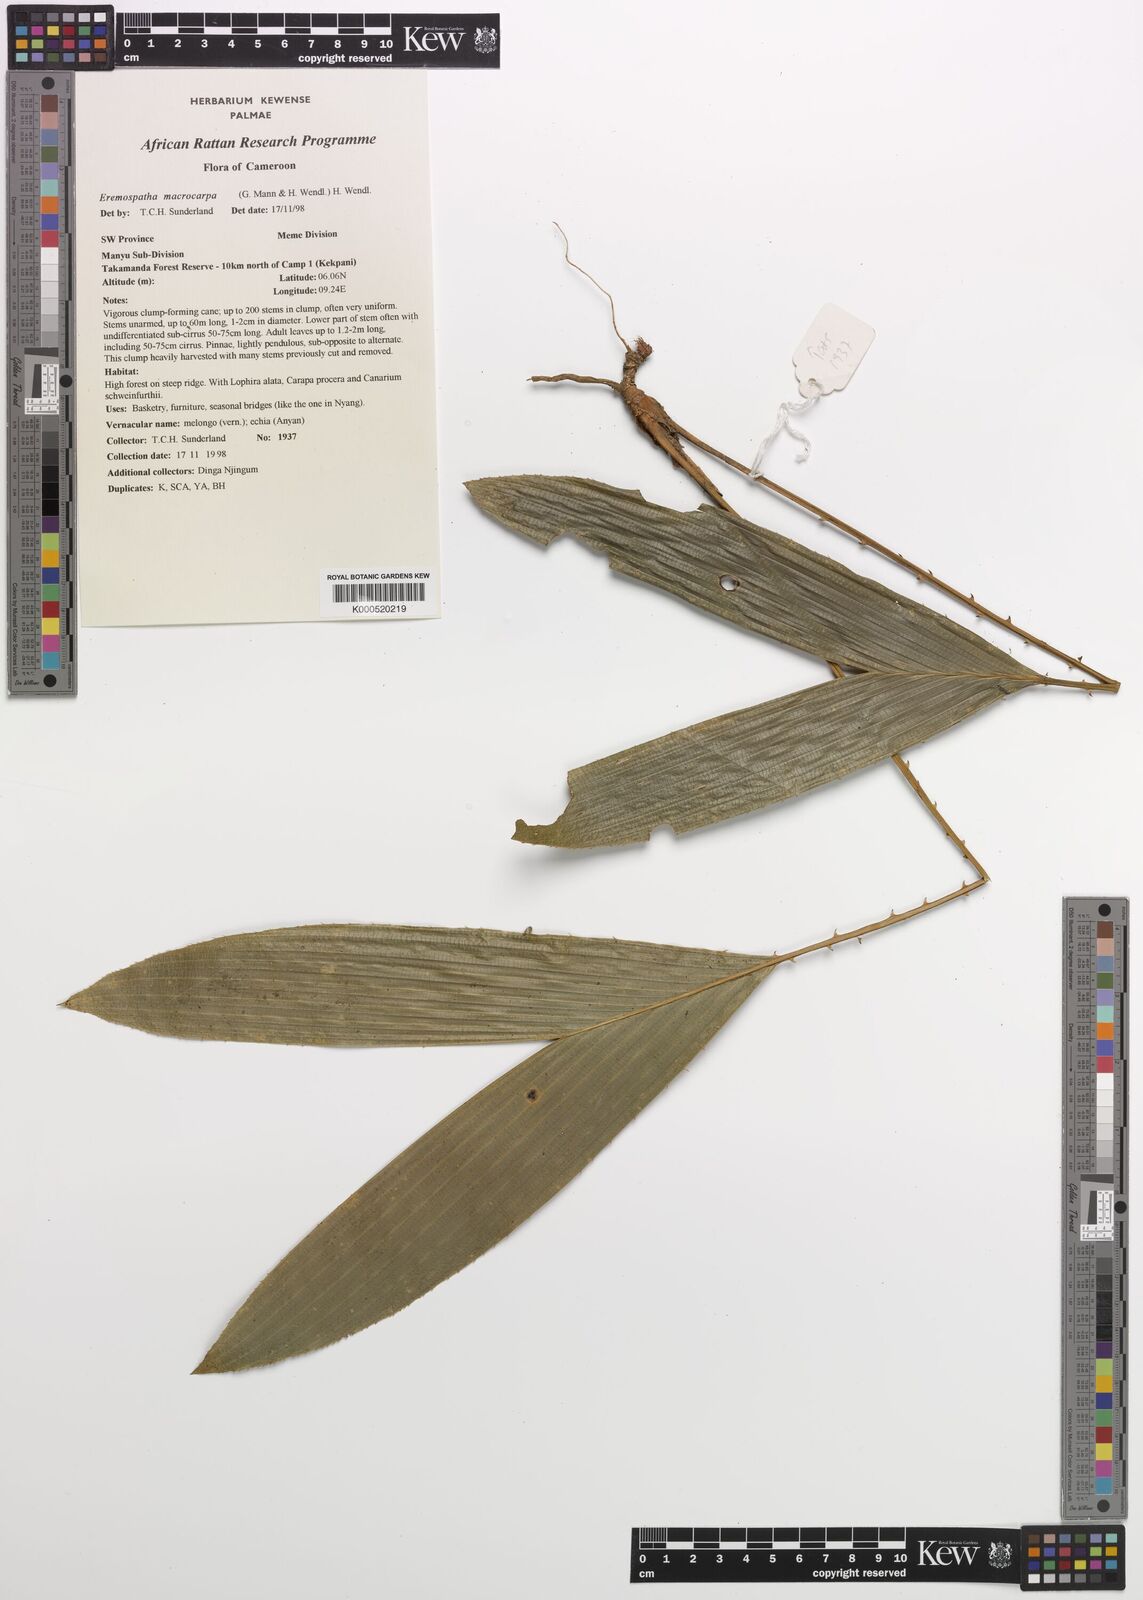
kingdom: Plantae
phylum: Tracheophyta
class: Liliopsida
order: Arecales
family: Arecaceae
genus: Eremospatha
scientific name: Eremospatha
